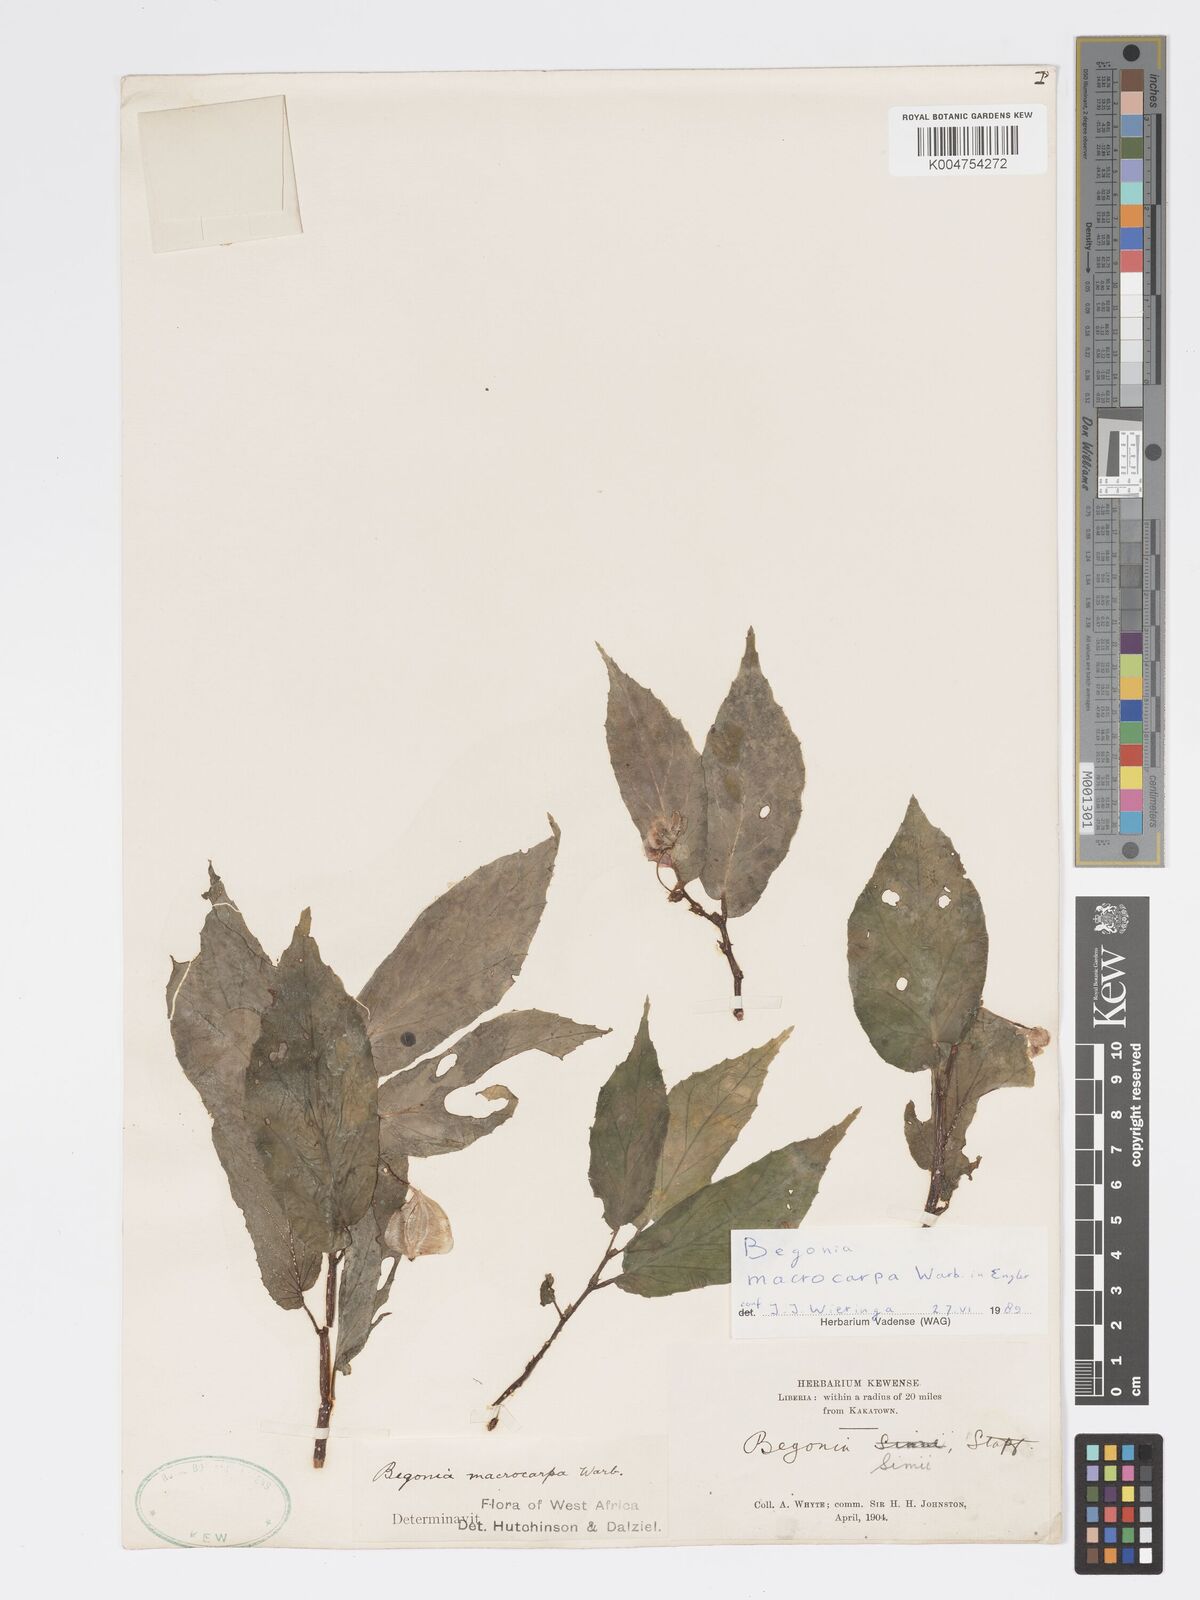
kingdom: Plantae
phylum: Tracheophyta
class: Magnoliopsida
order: Cucurbitales
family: Begoniaceae
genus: Begonia
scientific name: Begonia macrocarpa
